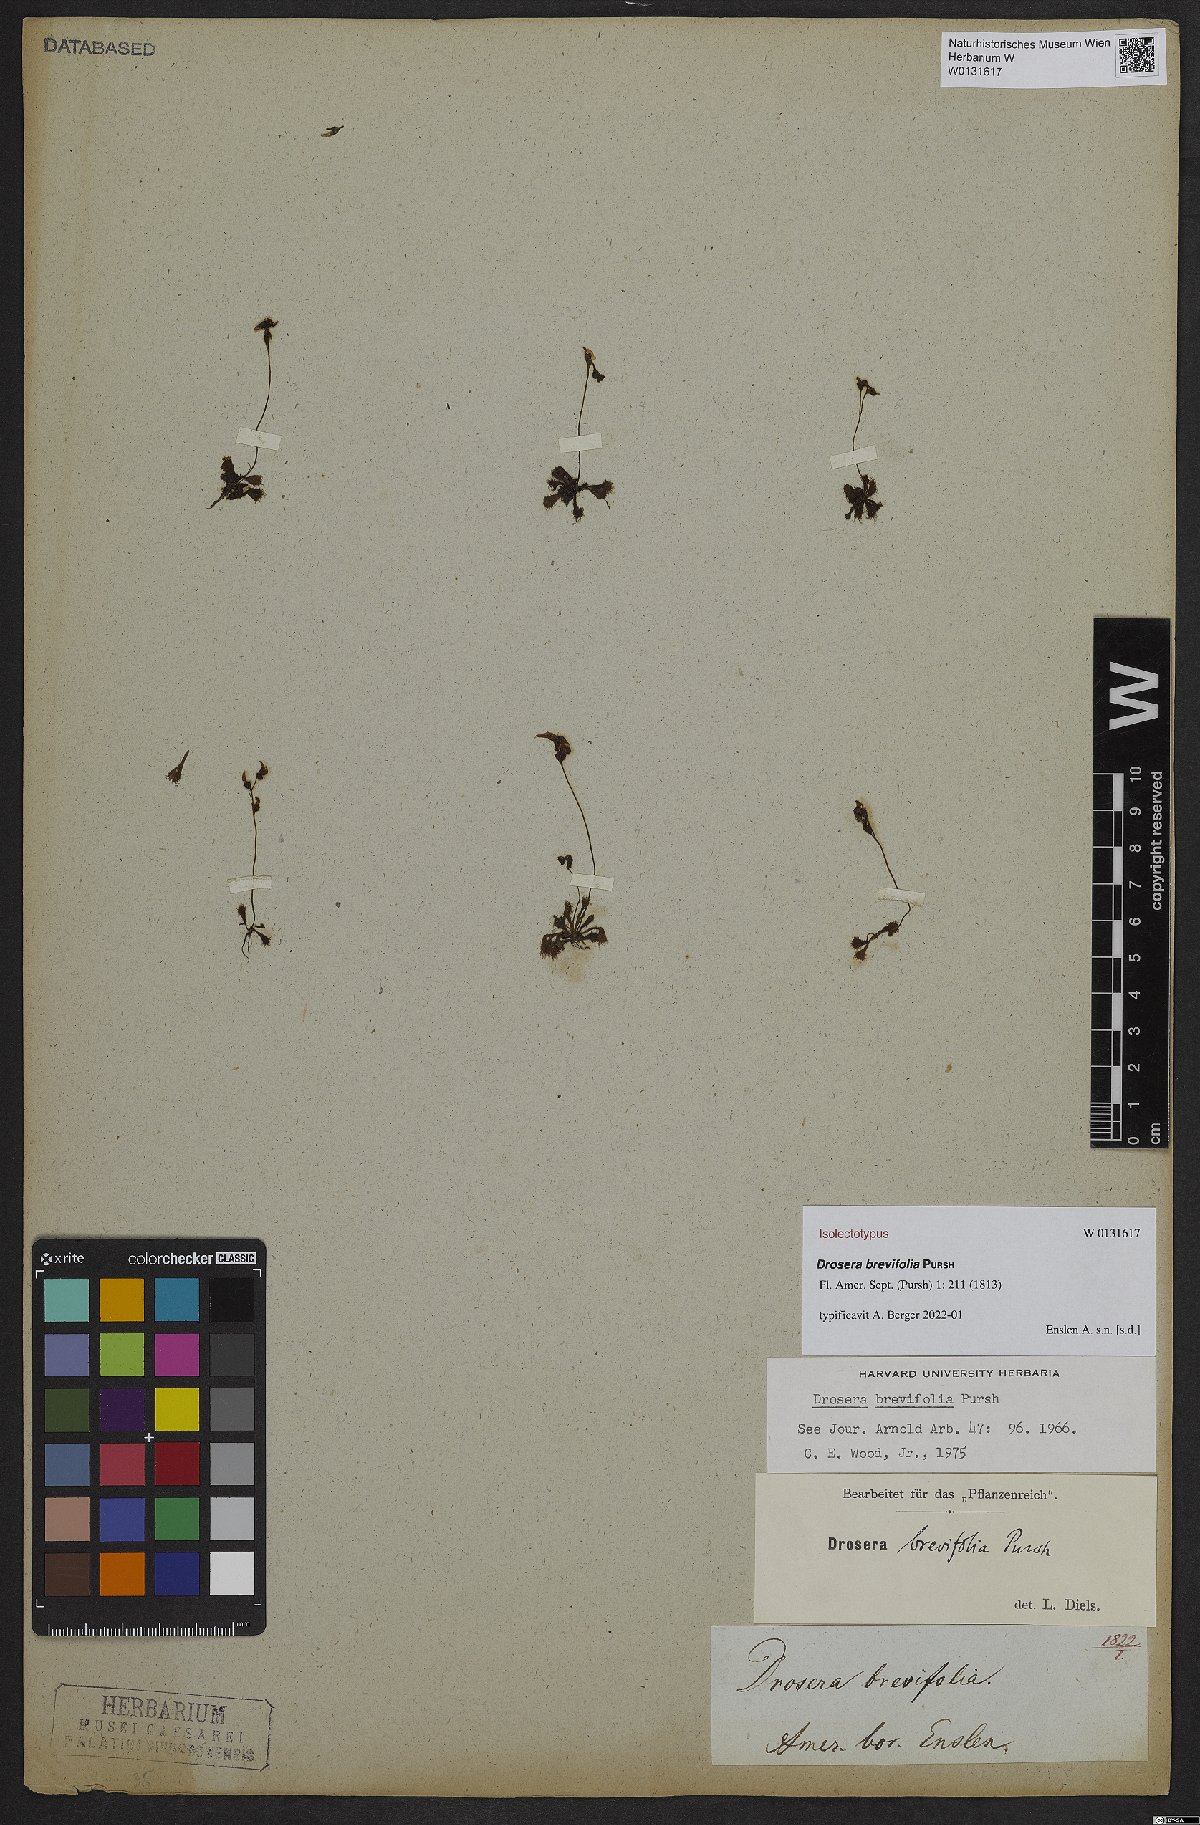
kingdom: Plantae
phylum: Tracheophyta
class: Magnoliopsida
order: Caryophyllales
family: Droseraceae
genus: Drosera
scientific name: Drosera brevifolia
